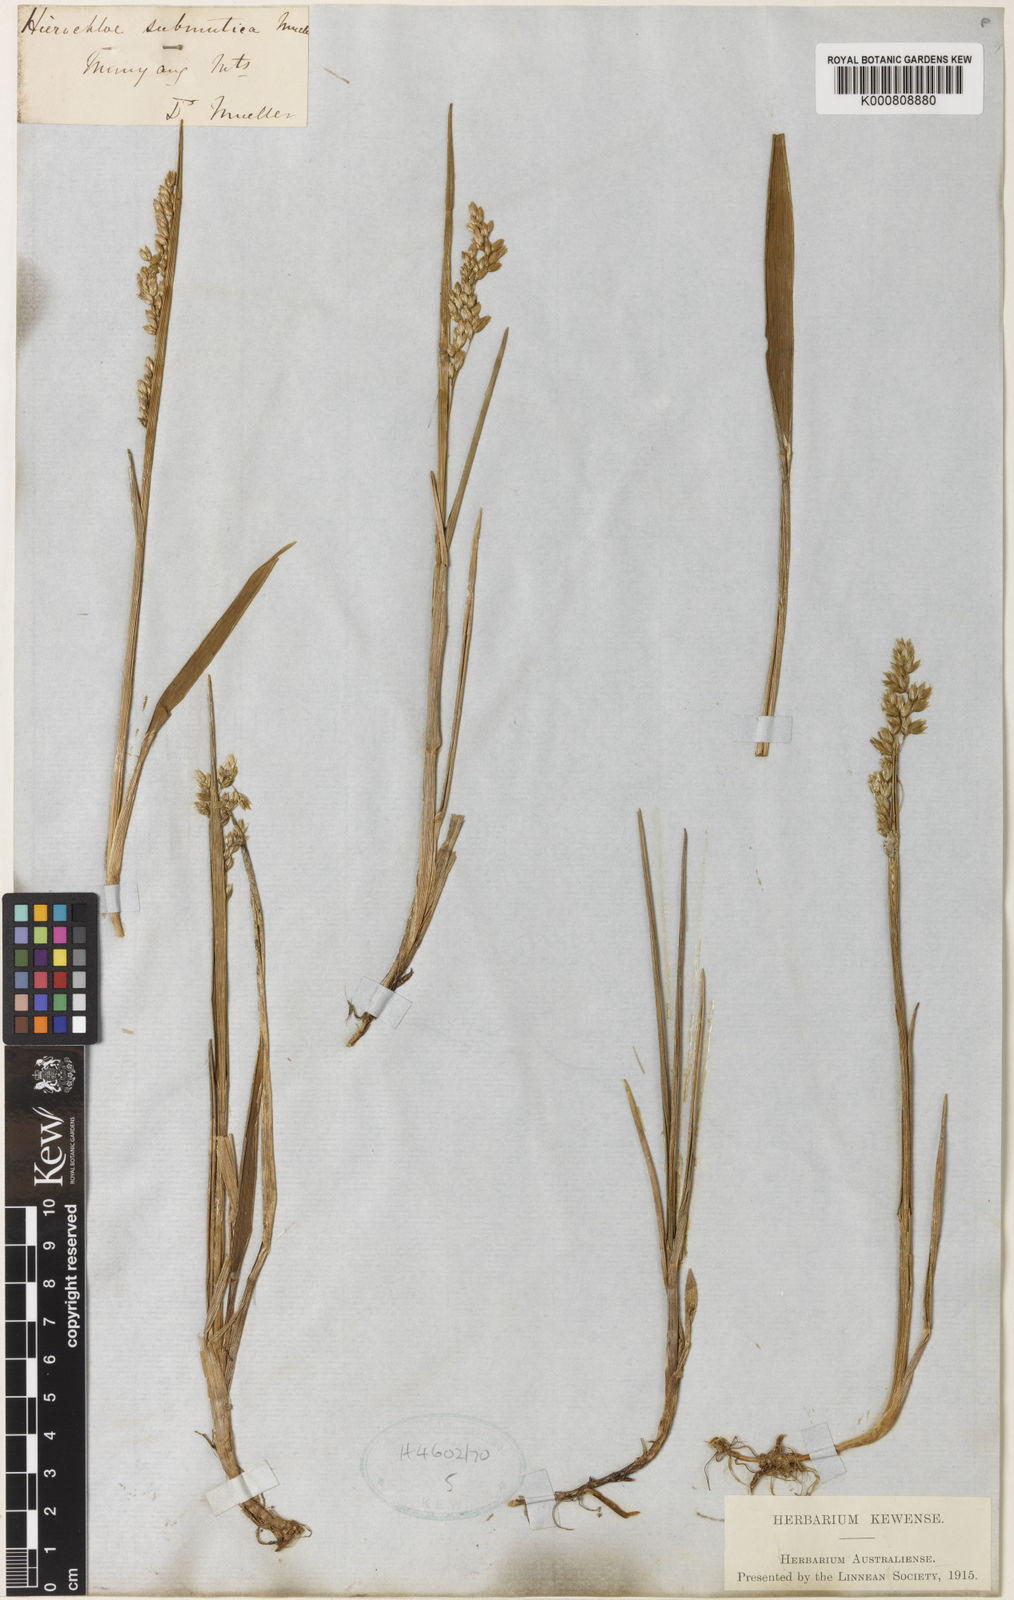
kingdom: Plantae
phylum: Tracheophyta
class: Liliopsida
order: Poales
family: Poaceae
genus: Hierochloe
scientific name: Hierochloe
